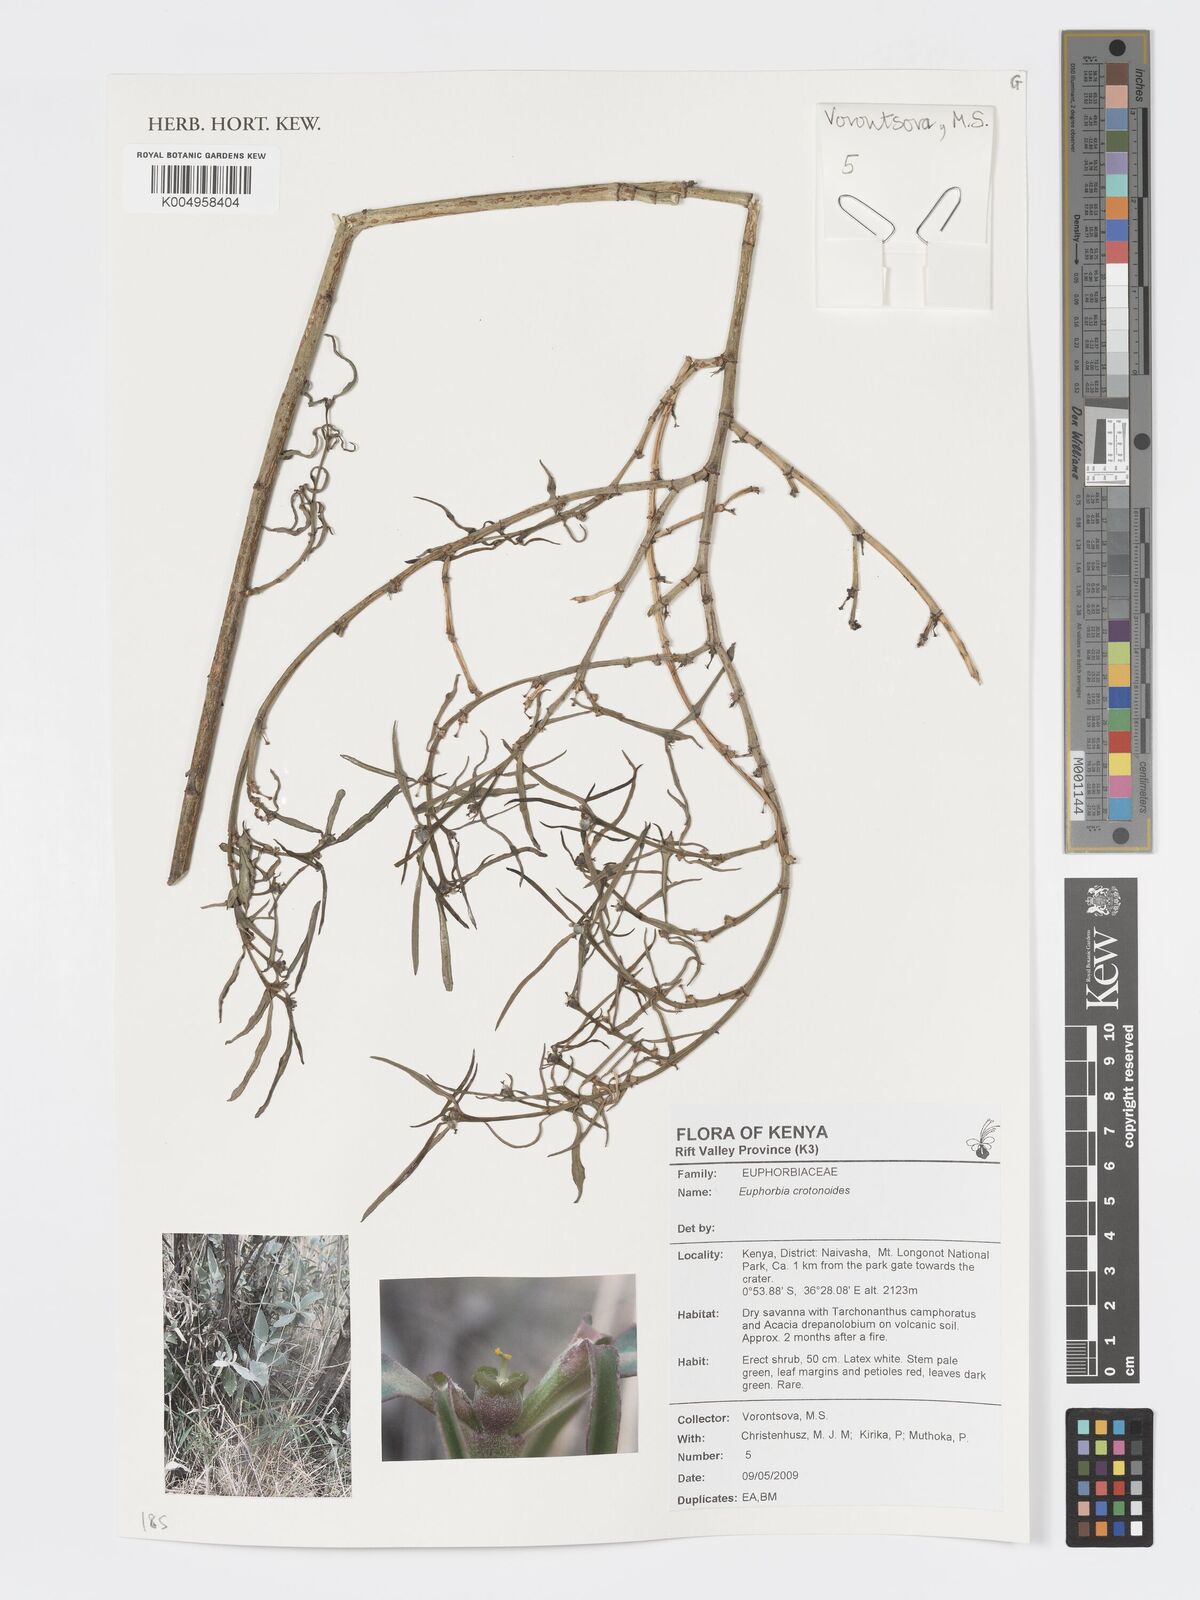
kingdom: Plantae
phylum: Tracheophyta
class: Magnoliopsida
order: Malpighiales
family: Euphorbiaceae
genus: Euphorbia
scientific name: Euphorbia crotonoides
